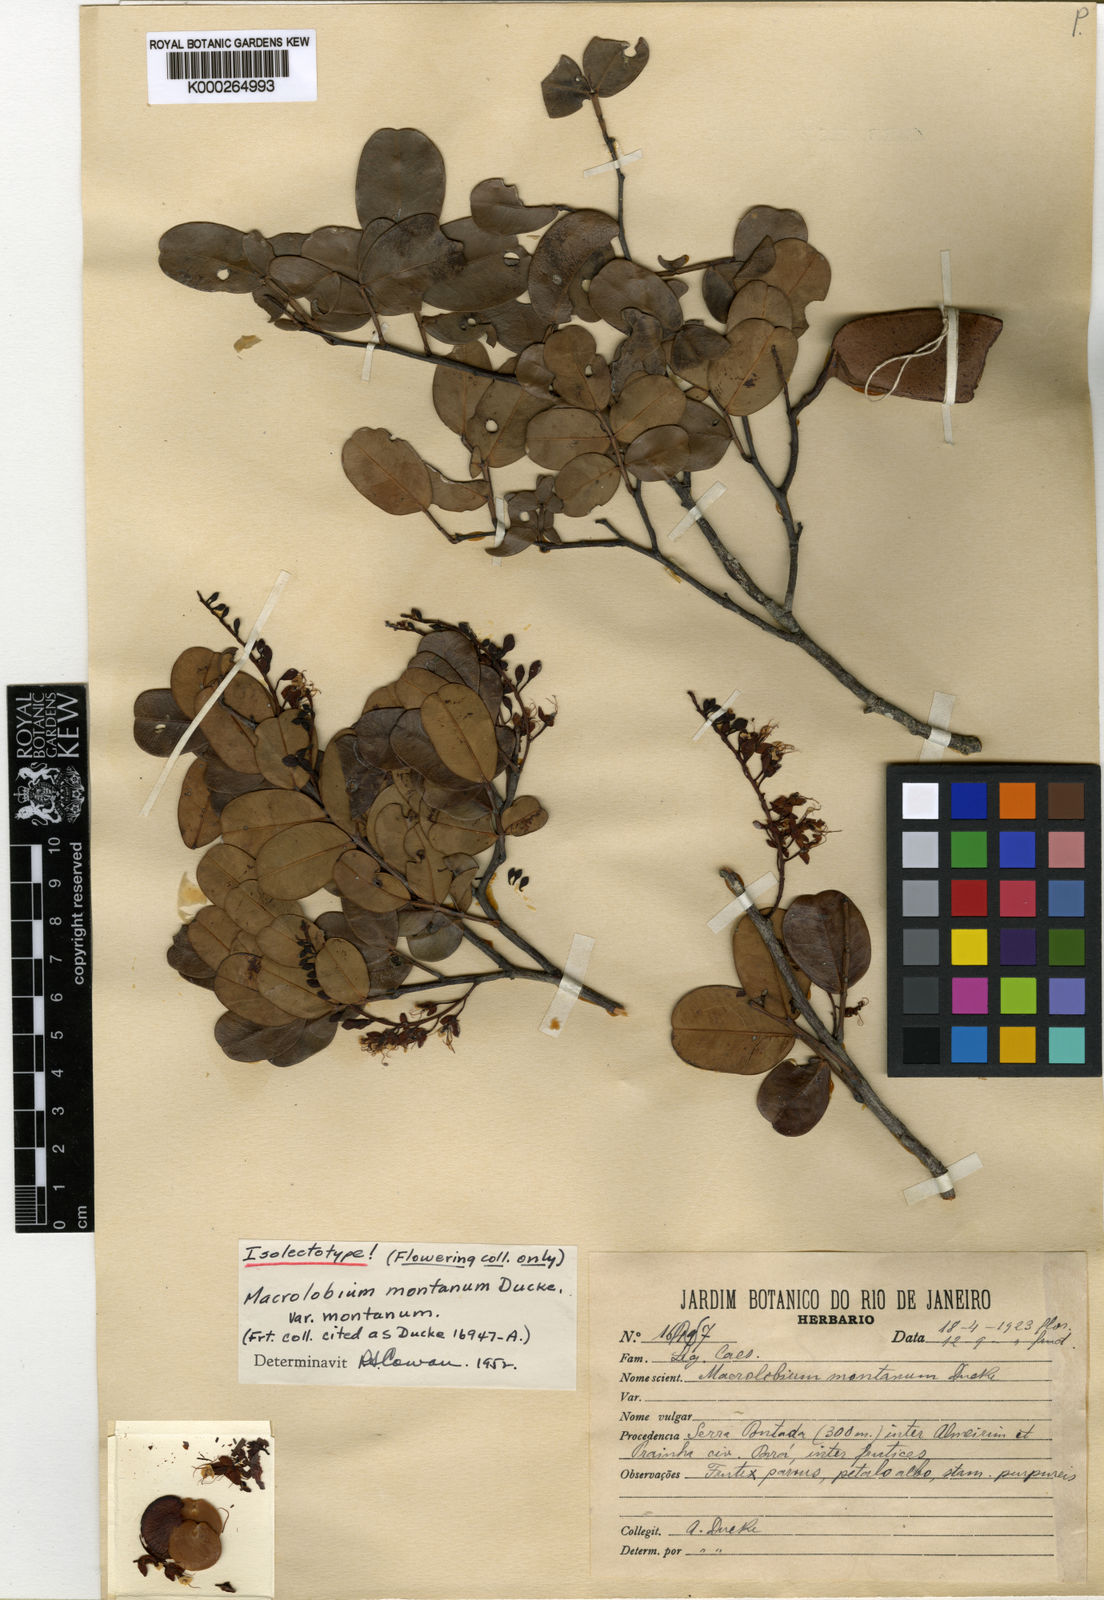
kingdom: Plantae
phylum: Tracheophyta
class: Magnoliopsida
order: Fabales
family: Fabaceae
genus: Macrolobium
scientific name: Macrolobium montanum
